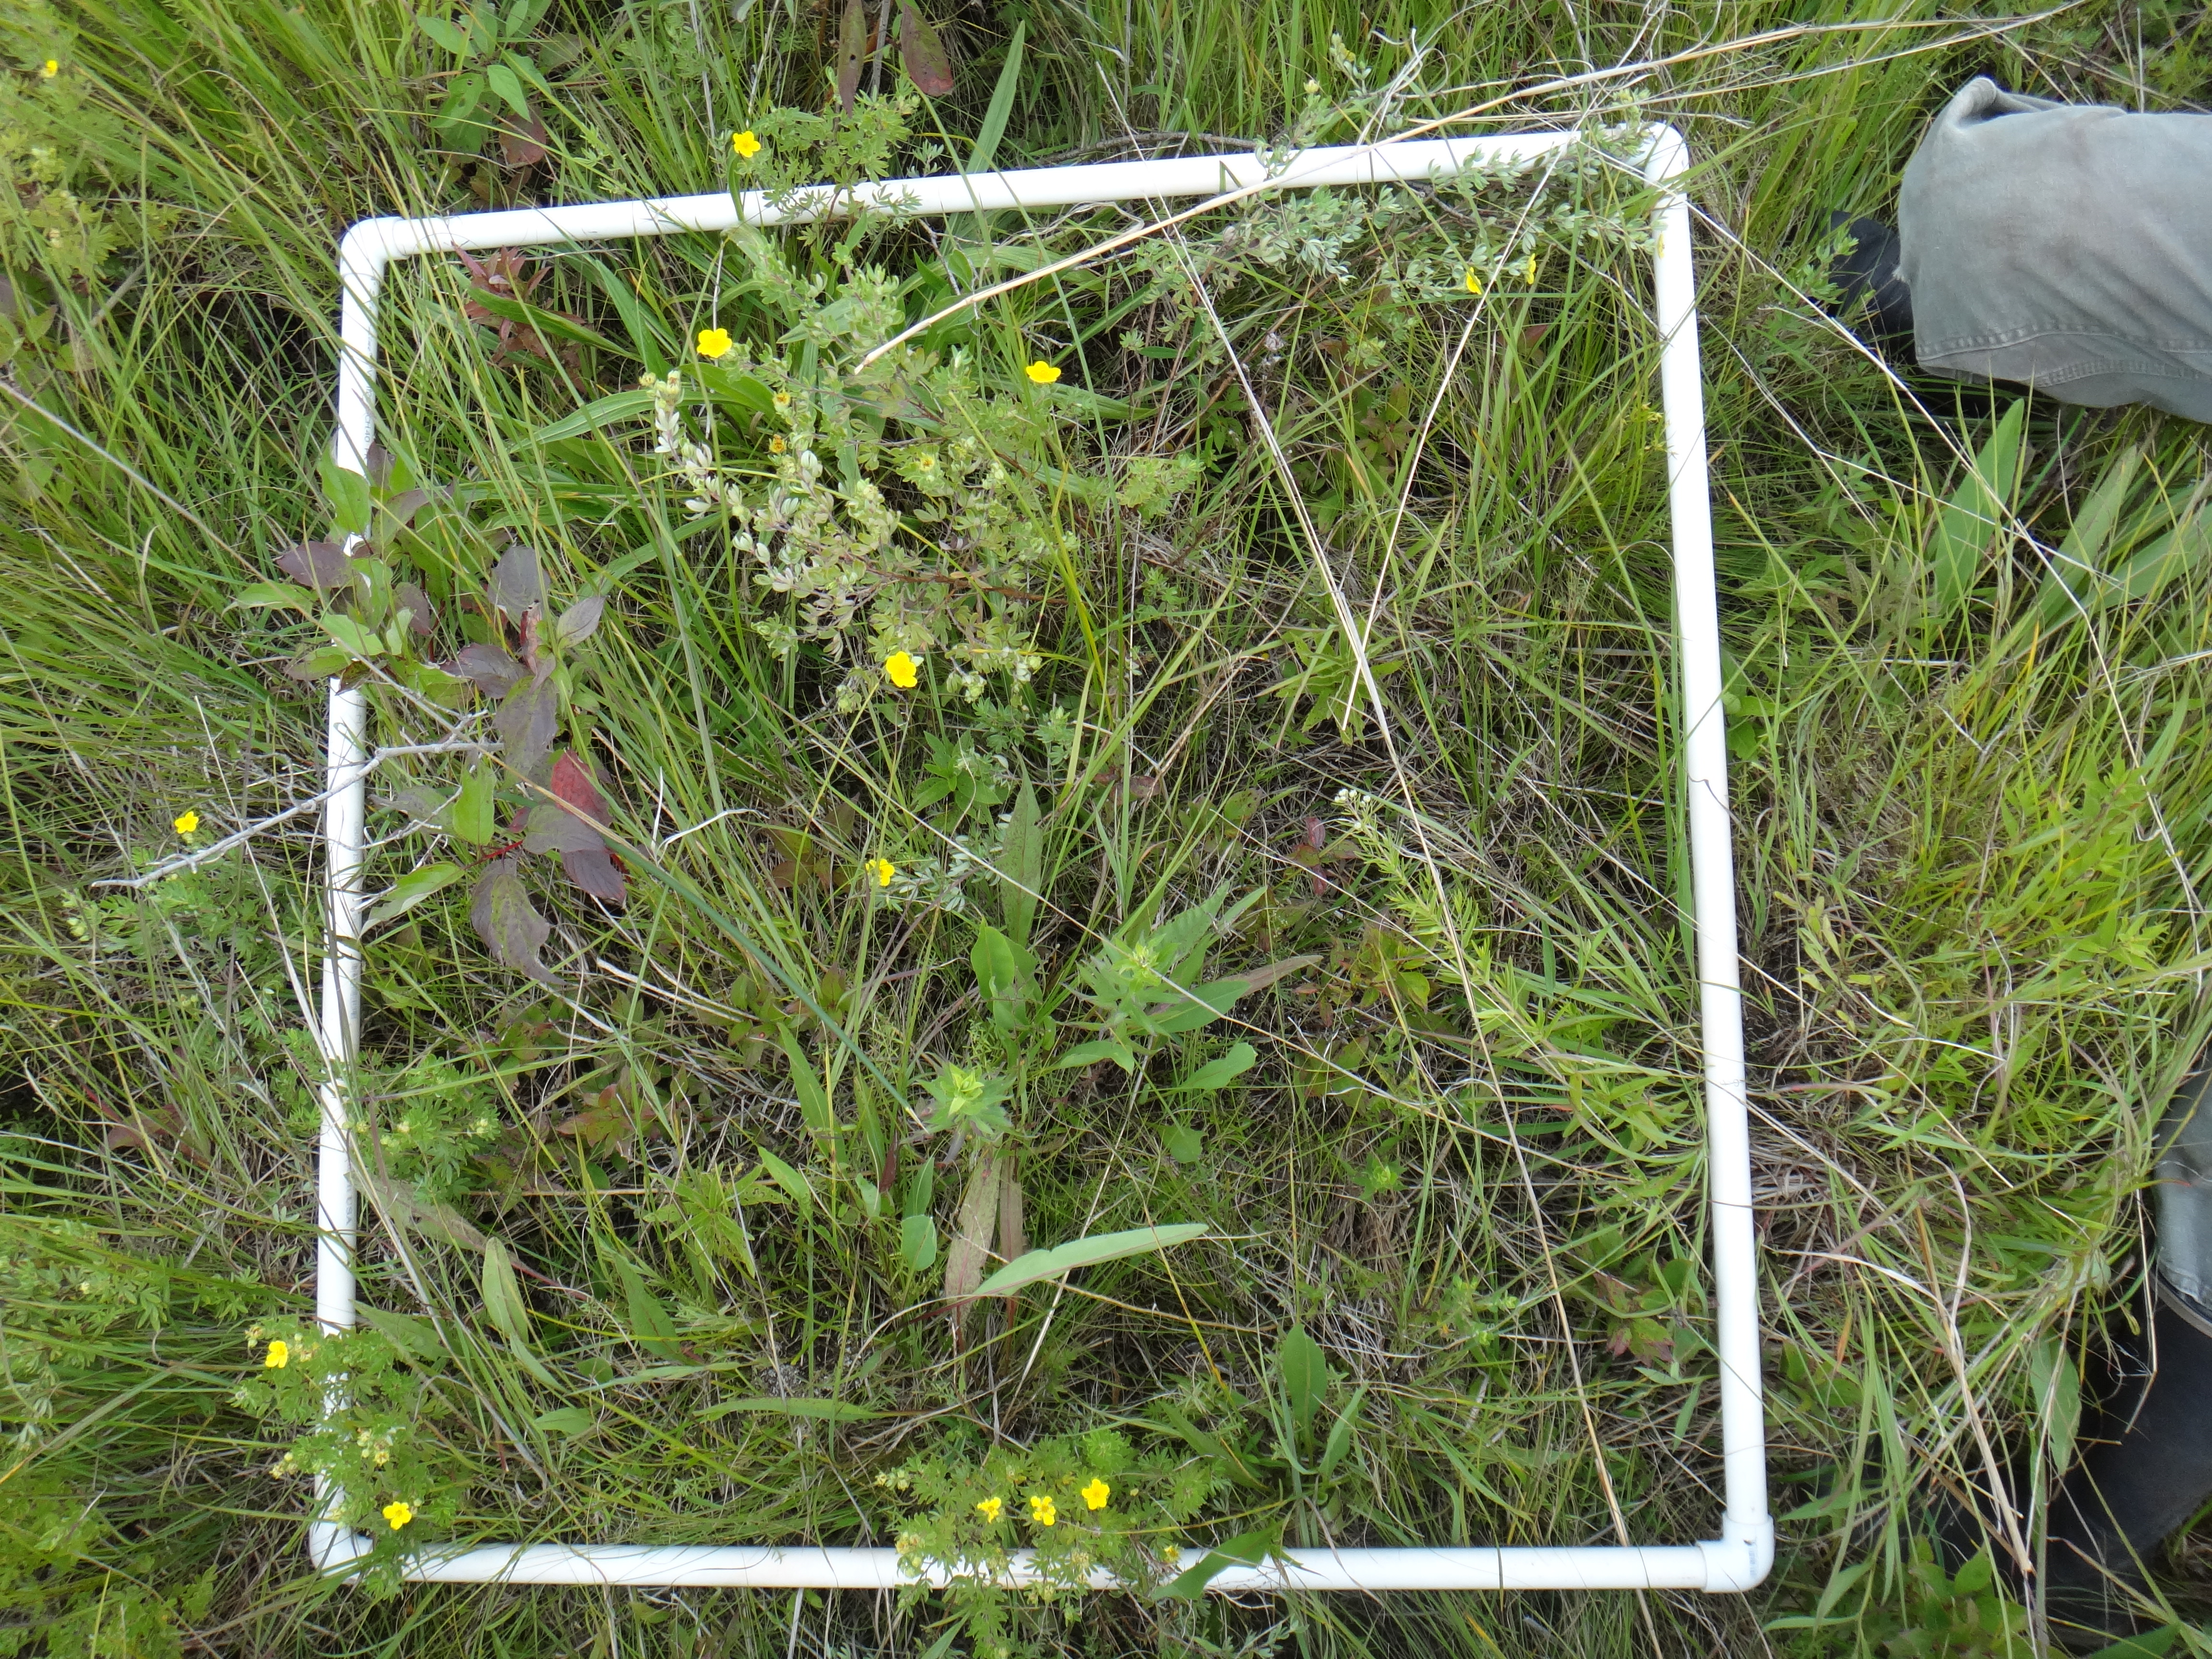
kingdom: Plantae
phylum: Tracheophyta
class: Magnoliopsida
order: Dipsacales
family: Caprifoliaceae
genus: Valeriana
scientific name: Valeriana edulis
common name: Taproot valerian
